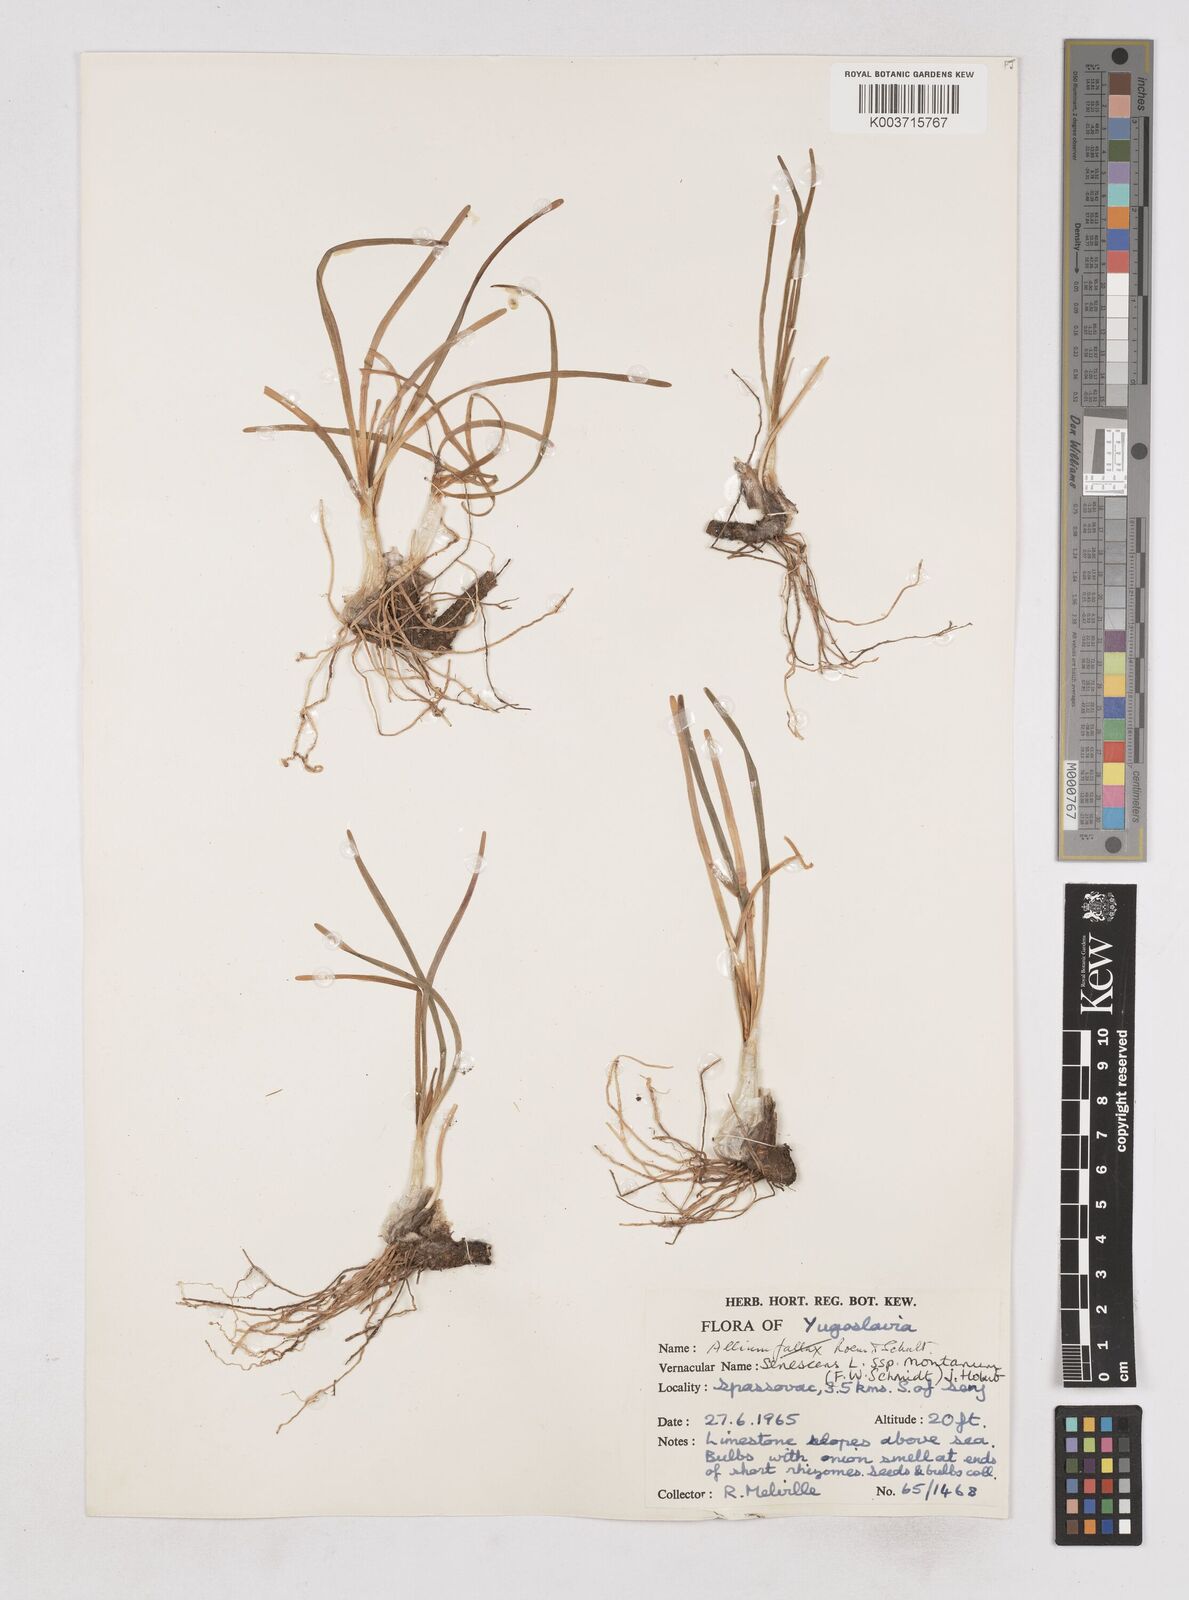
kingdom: Plantae
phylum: Tracheophyta
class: Liliopsida
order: Asparagales
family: Amaryllidaceae
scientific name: Amaryllidaceae
